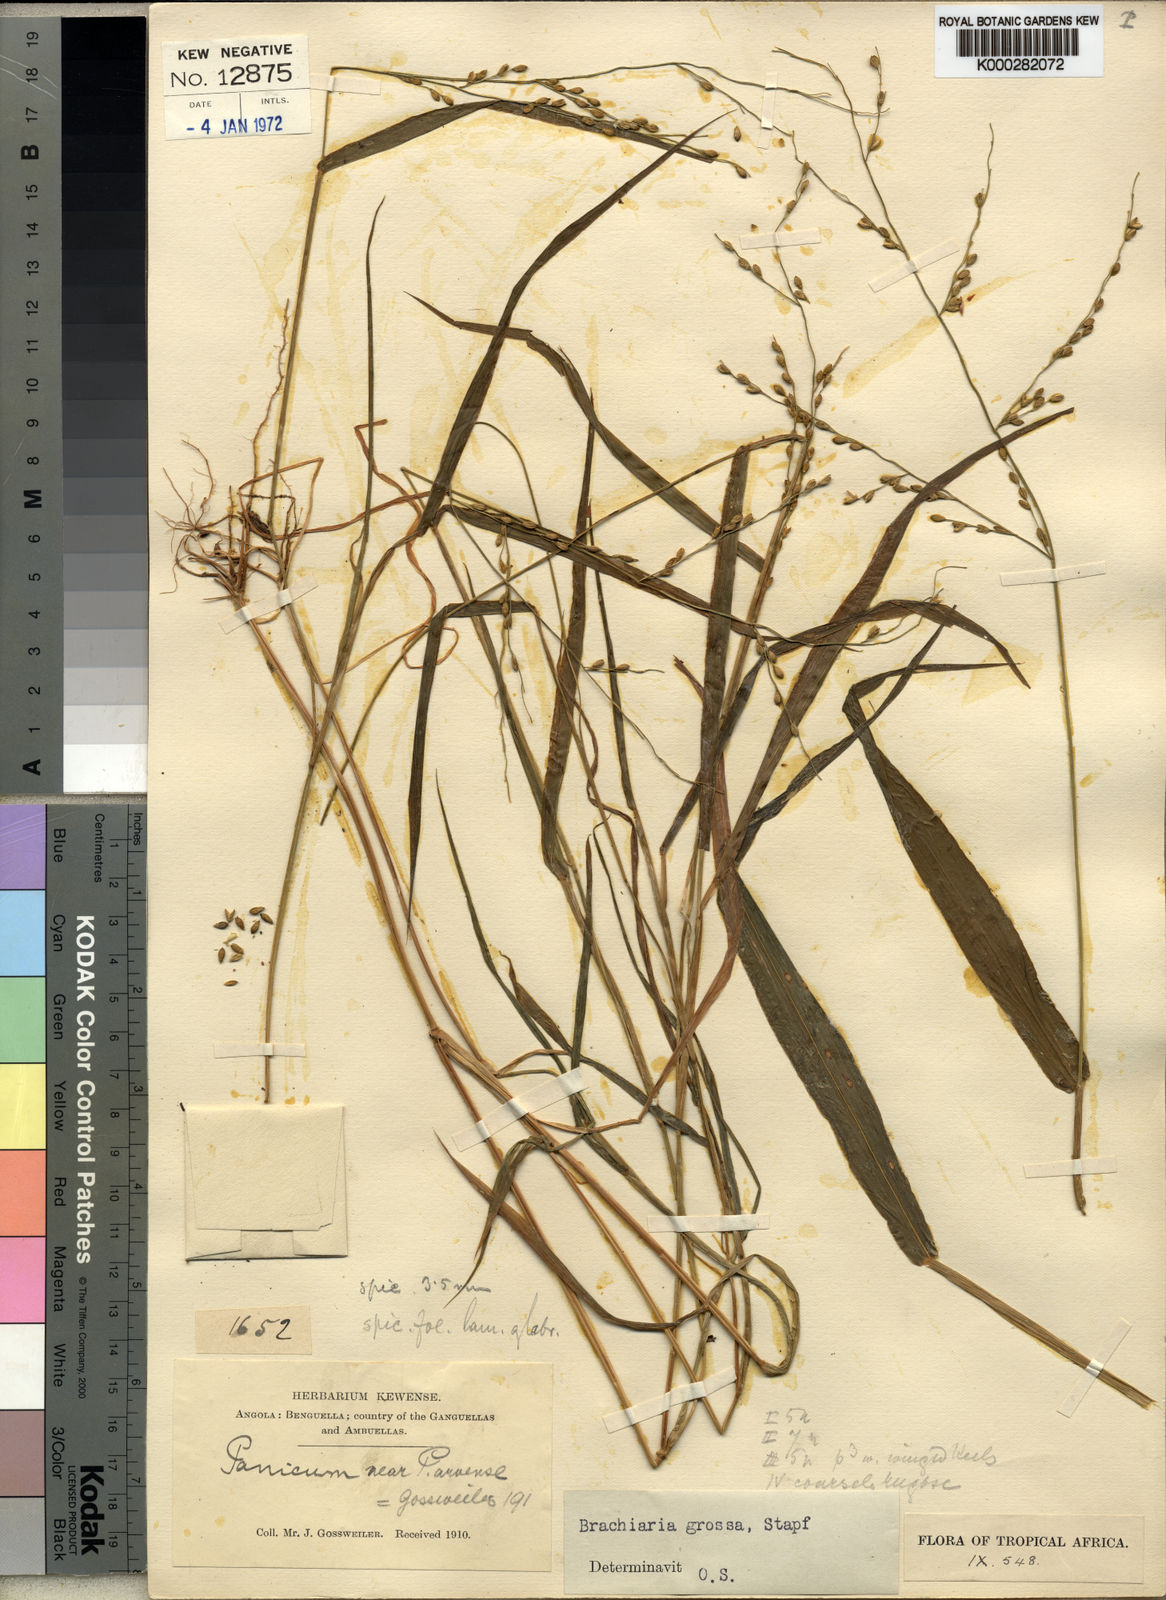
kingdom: Plantae
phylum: Tracheophyta
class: Liliopsida
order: Poales
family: Poaceae
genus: Urochloa
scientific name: Urochloa Brachiaria grossa
